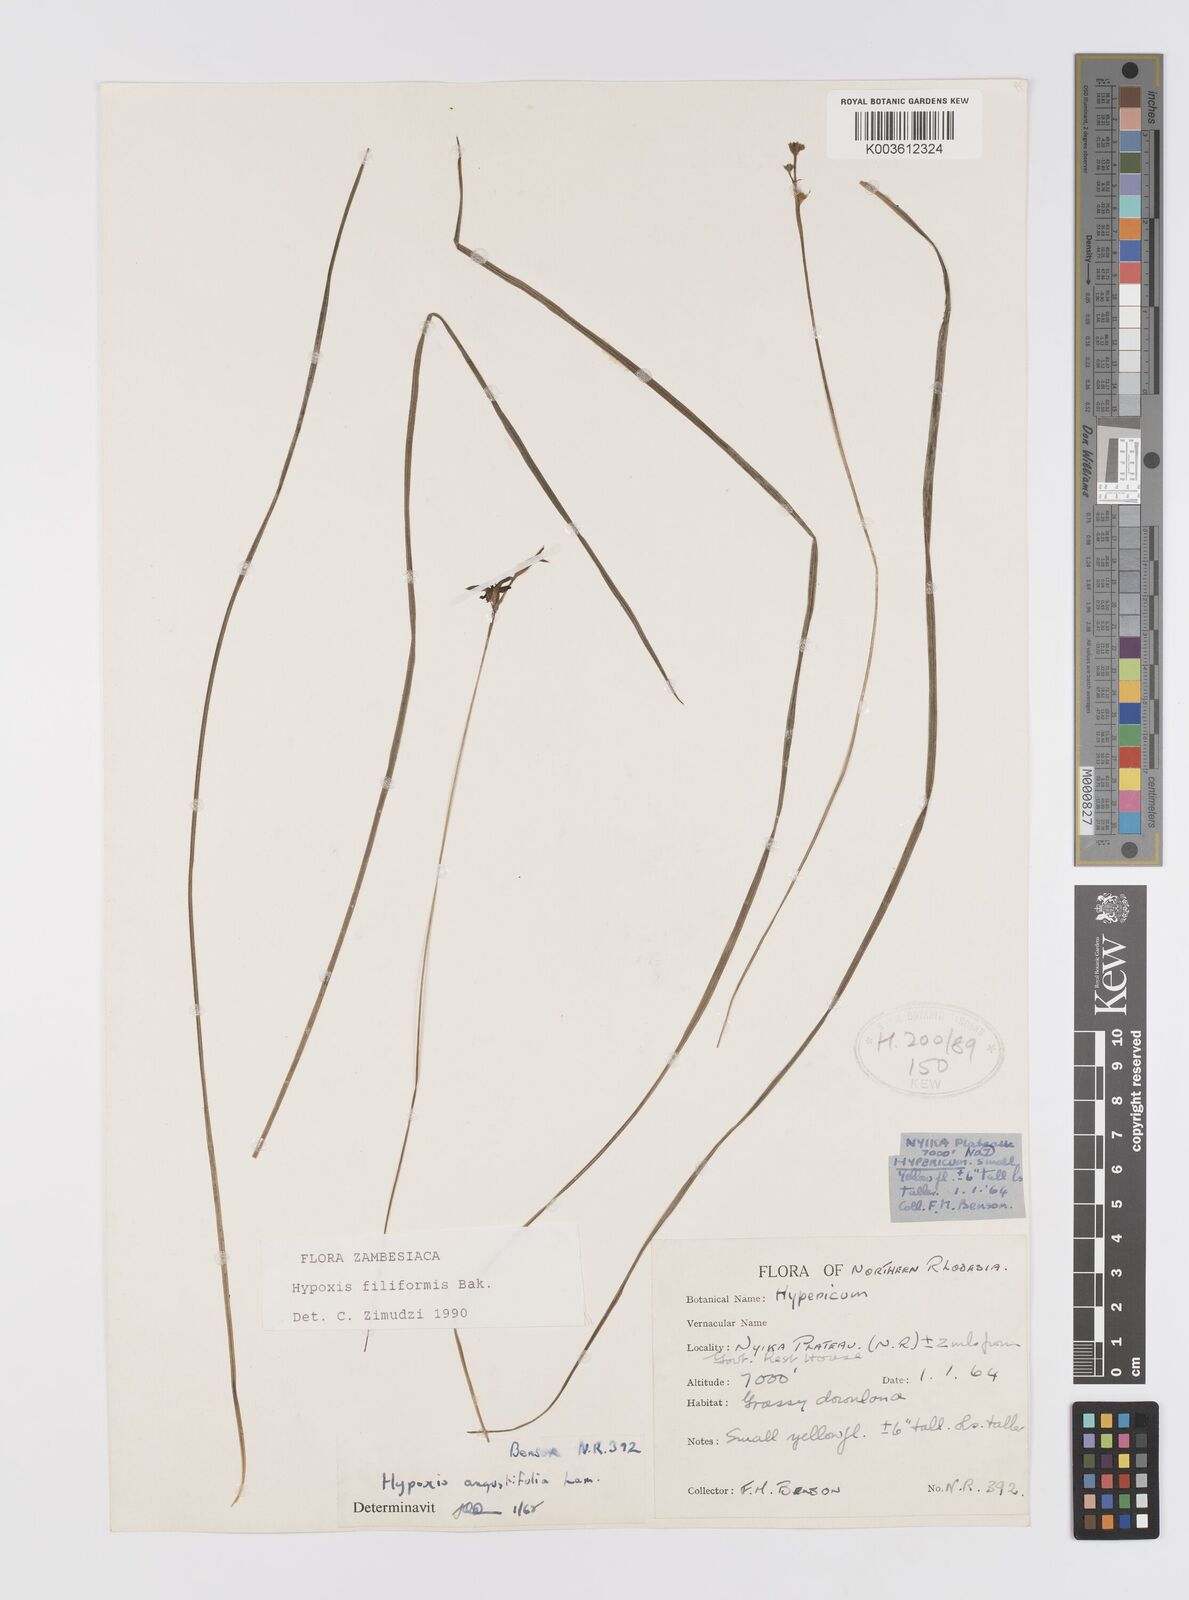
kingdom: Plantae
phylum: Tracheophyta
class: Liliopsida
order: Asparagales
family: Hypoxidaceae
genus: Hypoxis
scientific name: Hypoxis filiformis
